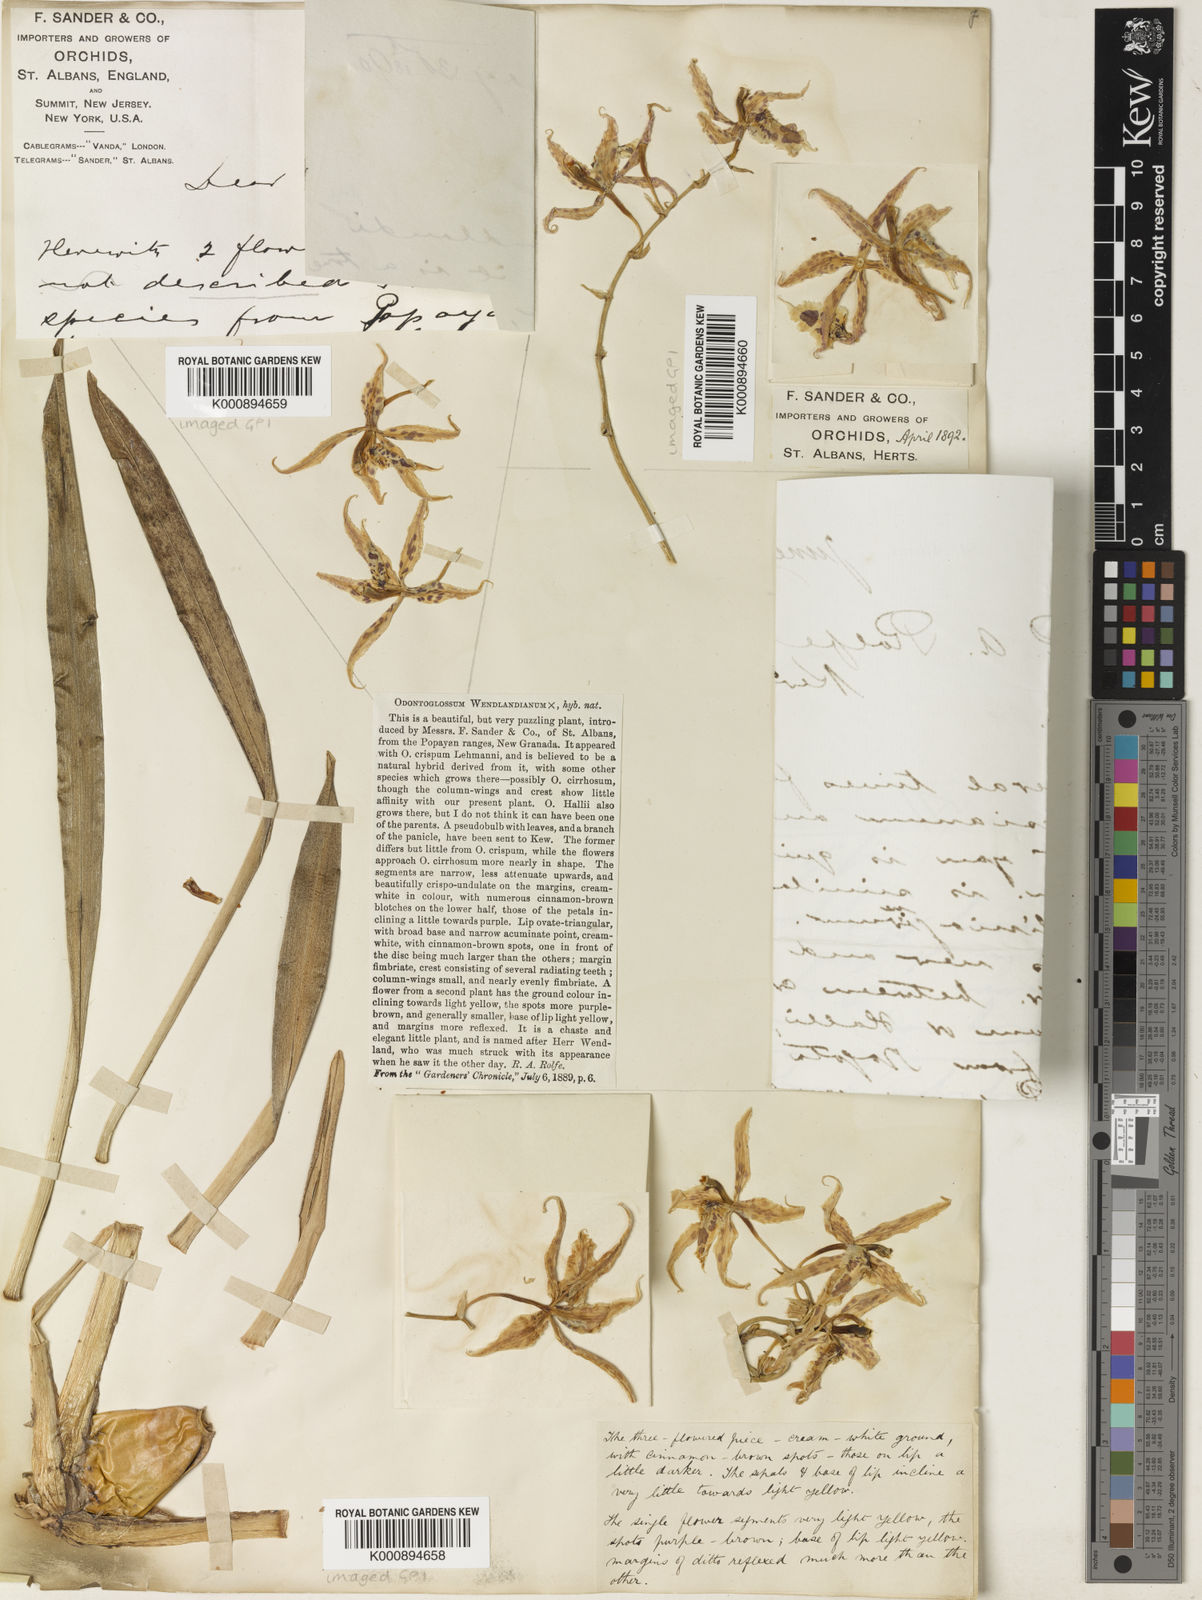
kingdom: Plantae
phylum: Tracheophyta
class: Liliopsida
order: Asparagales
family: Orchidaceae
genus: Oncidium
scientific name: Oncidium Odontoglossum wendlandianum
